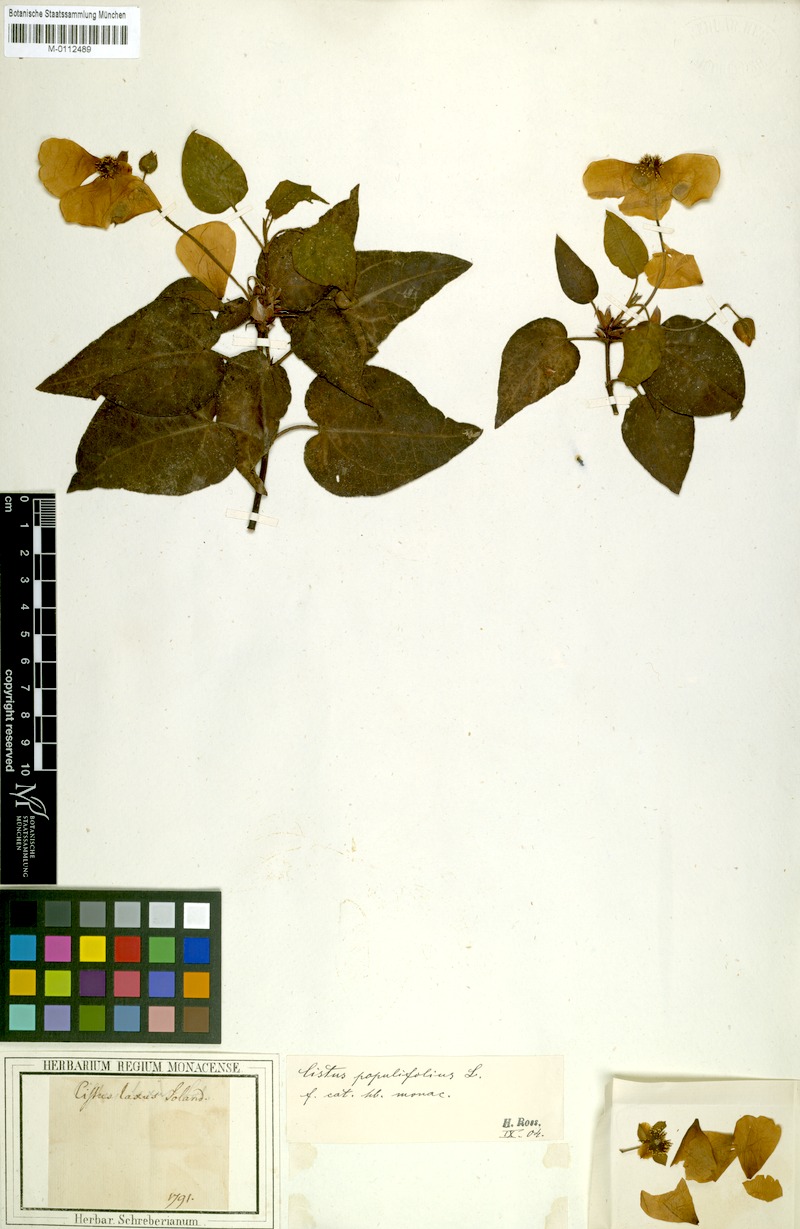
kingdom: Plantae
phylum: Tracheophyta
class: Magnoliopsida
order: Malvales
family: Cistaceae
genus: Cistus
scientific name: Cistus laxus
